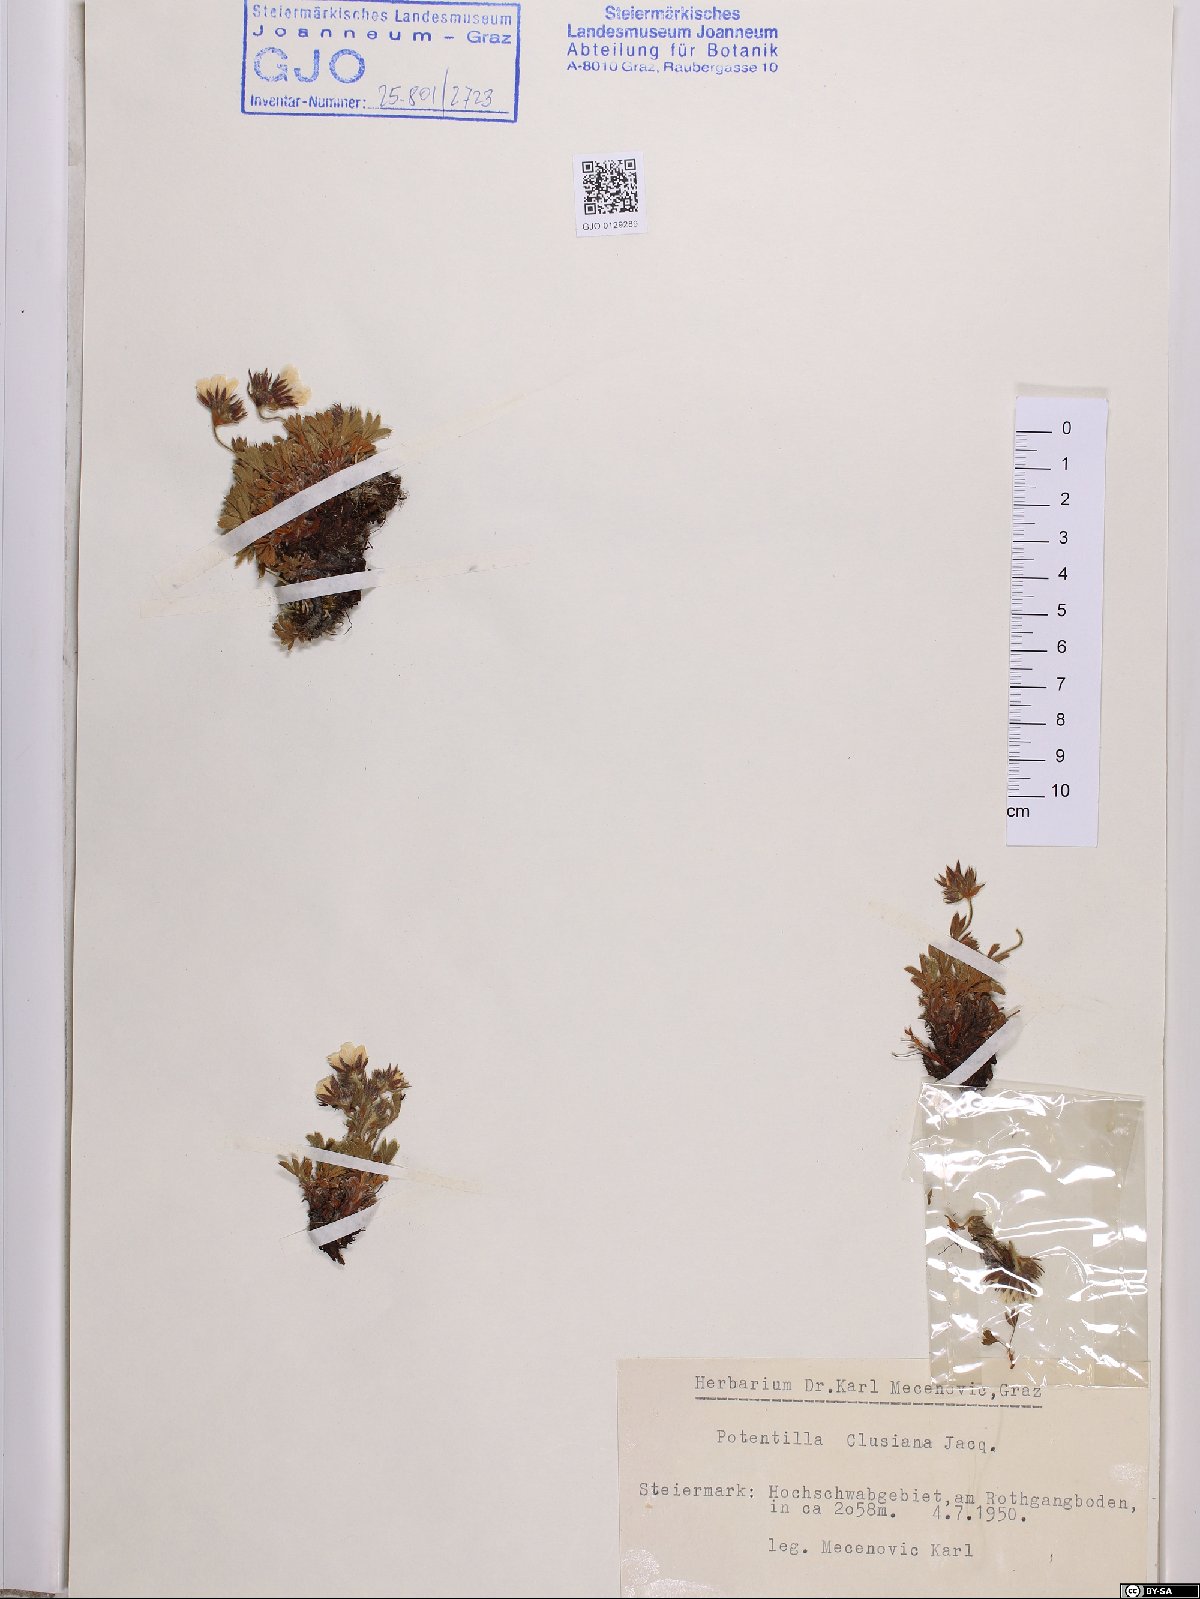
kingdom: Plantae
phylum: Tracheophyta
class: Magnoliopsida
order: Rosales
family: Rosaceae
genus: Potentilla
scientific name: Potentilla clusiana
